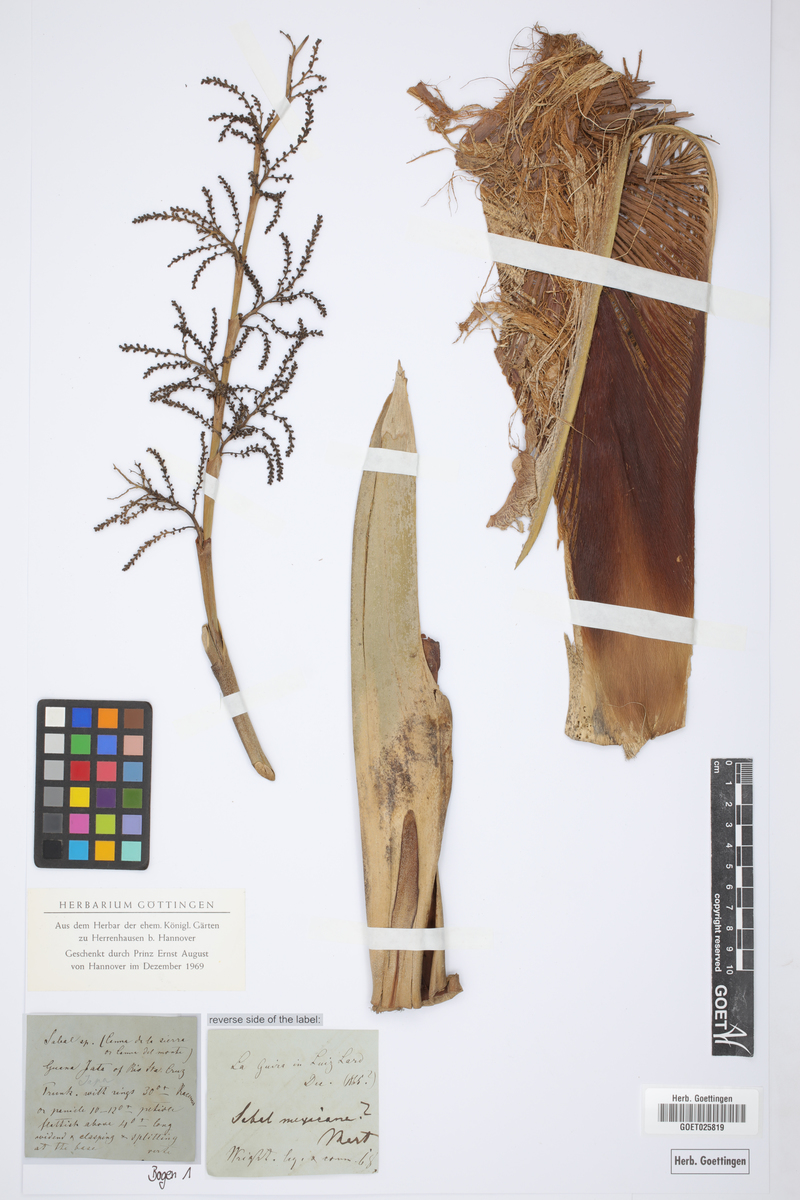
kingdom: Plantae
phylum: Tracheophyta
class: Liliopsida
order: Arecales
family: Arecaceae
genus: Sabal
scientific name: Sabal mexicana
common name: Texas palmetto
